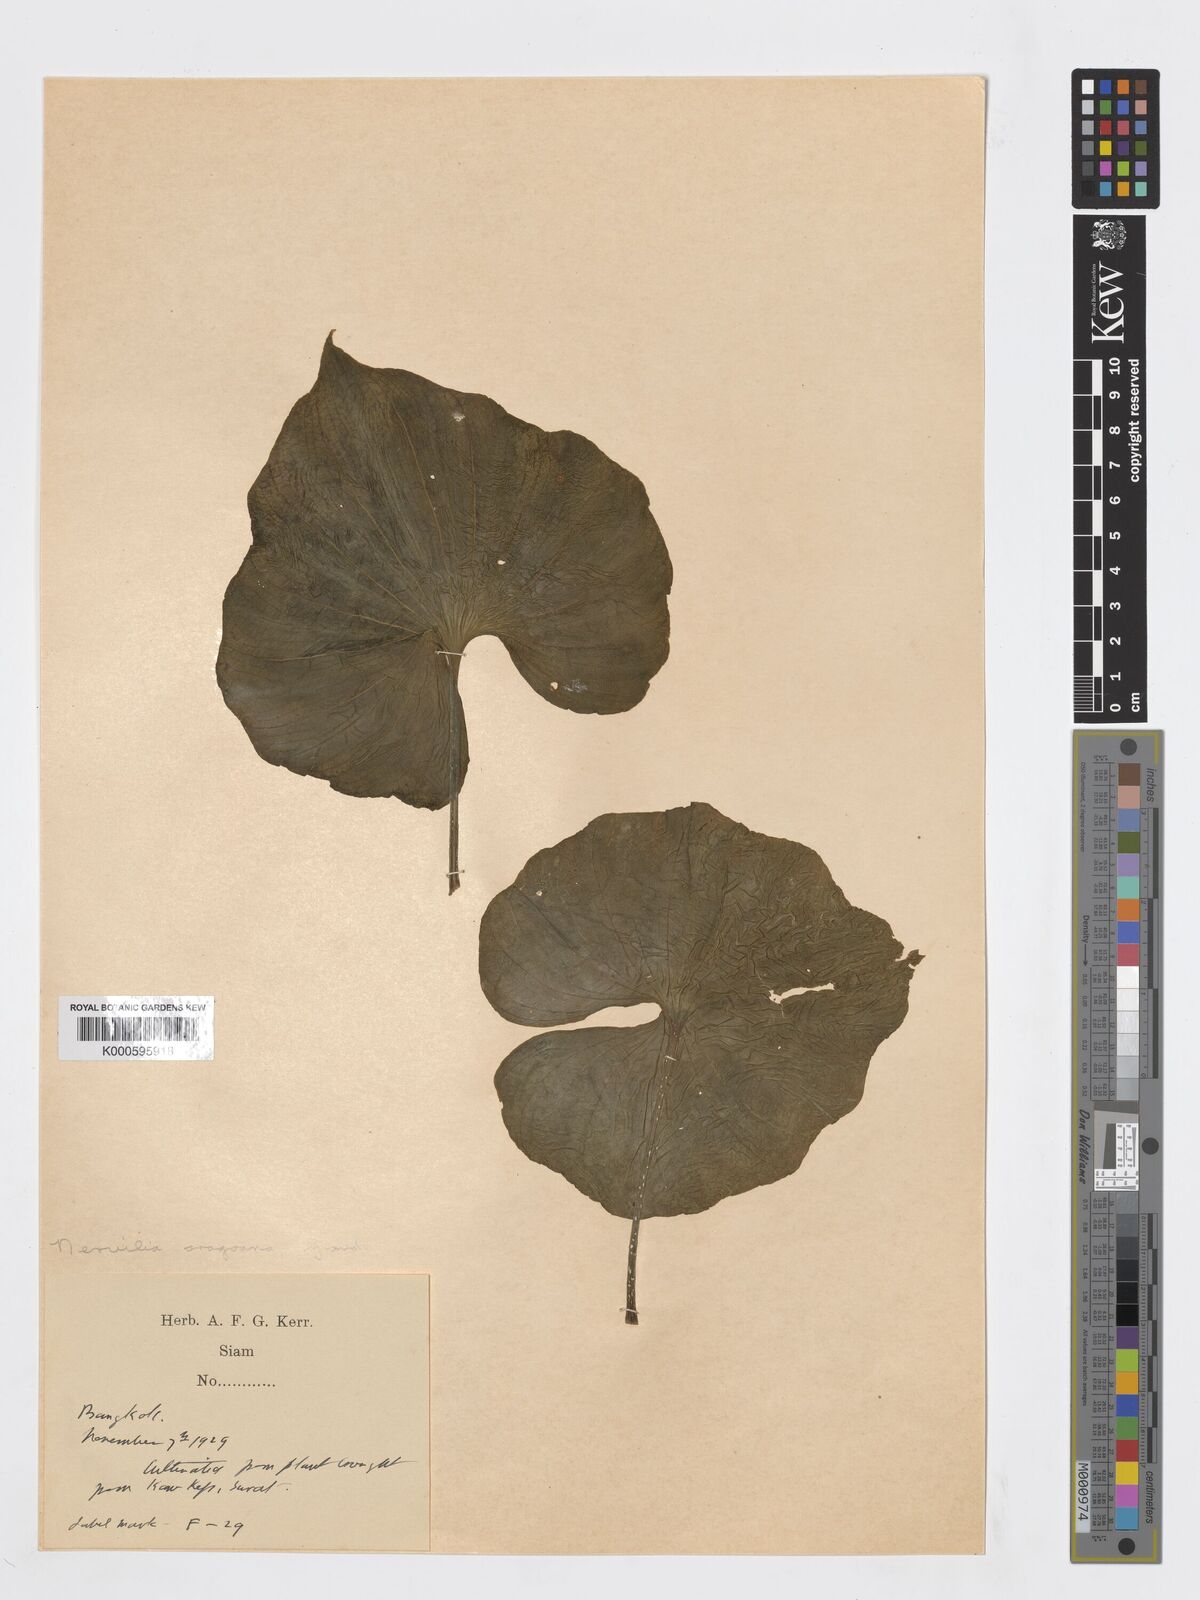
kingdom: Plantae
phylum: Tracheophyta
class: Liliopsida
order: Asparagales
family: Orchidaceae
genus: Nervilia
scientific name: Nervilia concolor
